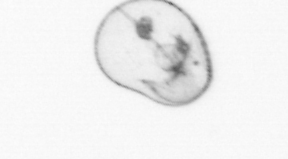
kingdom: Chromista
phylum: Myzozoa
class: Dinophyceae
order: Noctilucales
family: Noctilucaceae
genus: Noctiluca
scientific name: Noctiluca scintillans
